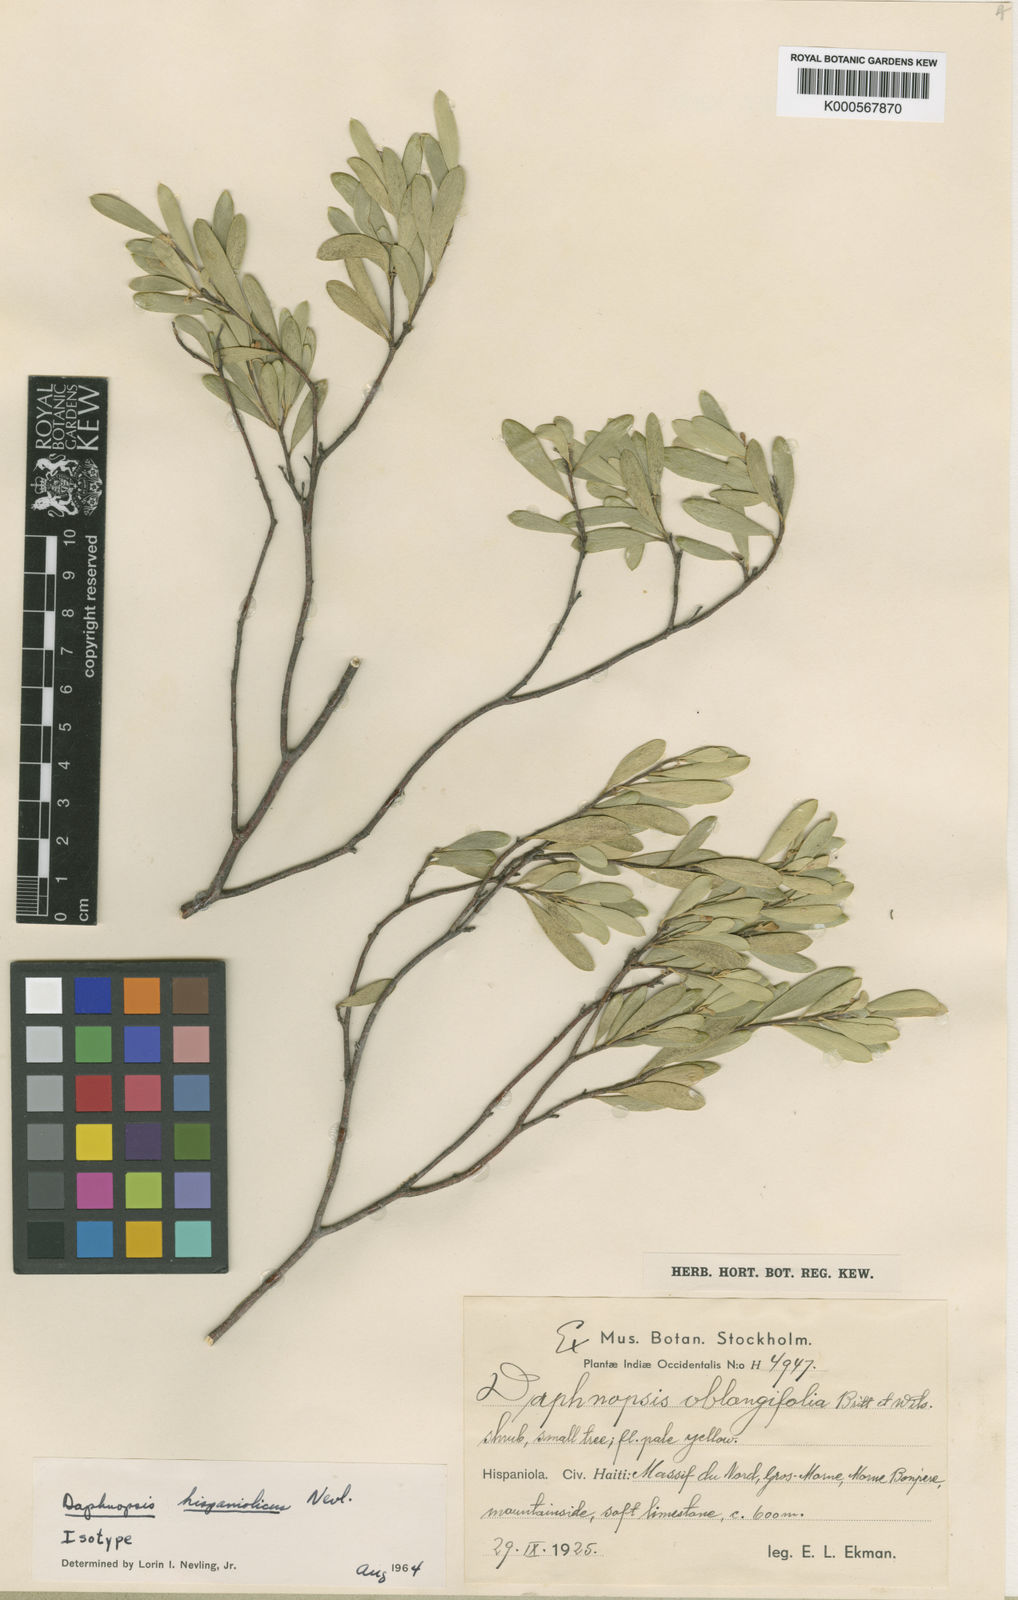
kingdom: Plantae
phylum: Tracheophyta
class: Magnoliopsida
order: Malvales
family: Thymelaeaceae
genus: Daphnopsis
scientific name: Daphnopsis hispaniolica
